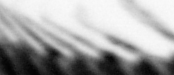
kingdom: Animalia
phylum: Chordata
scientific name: Chordata
